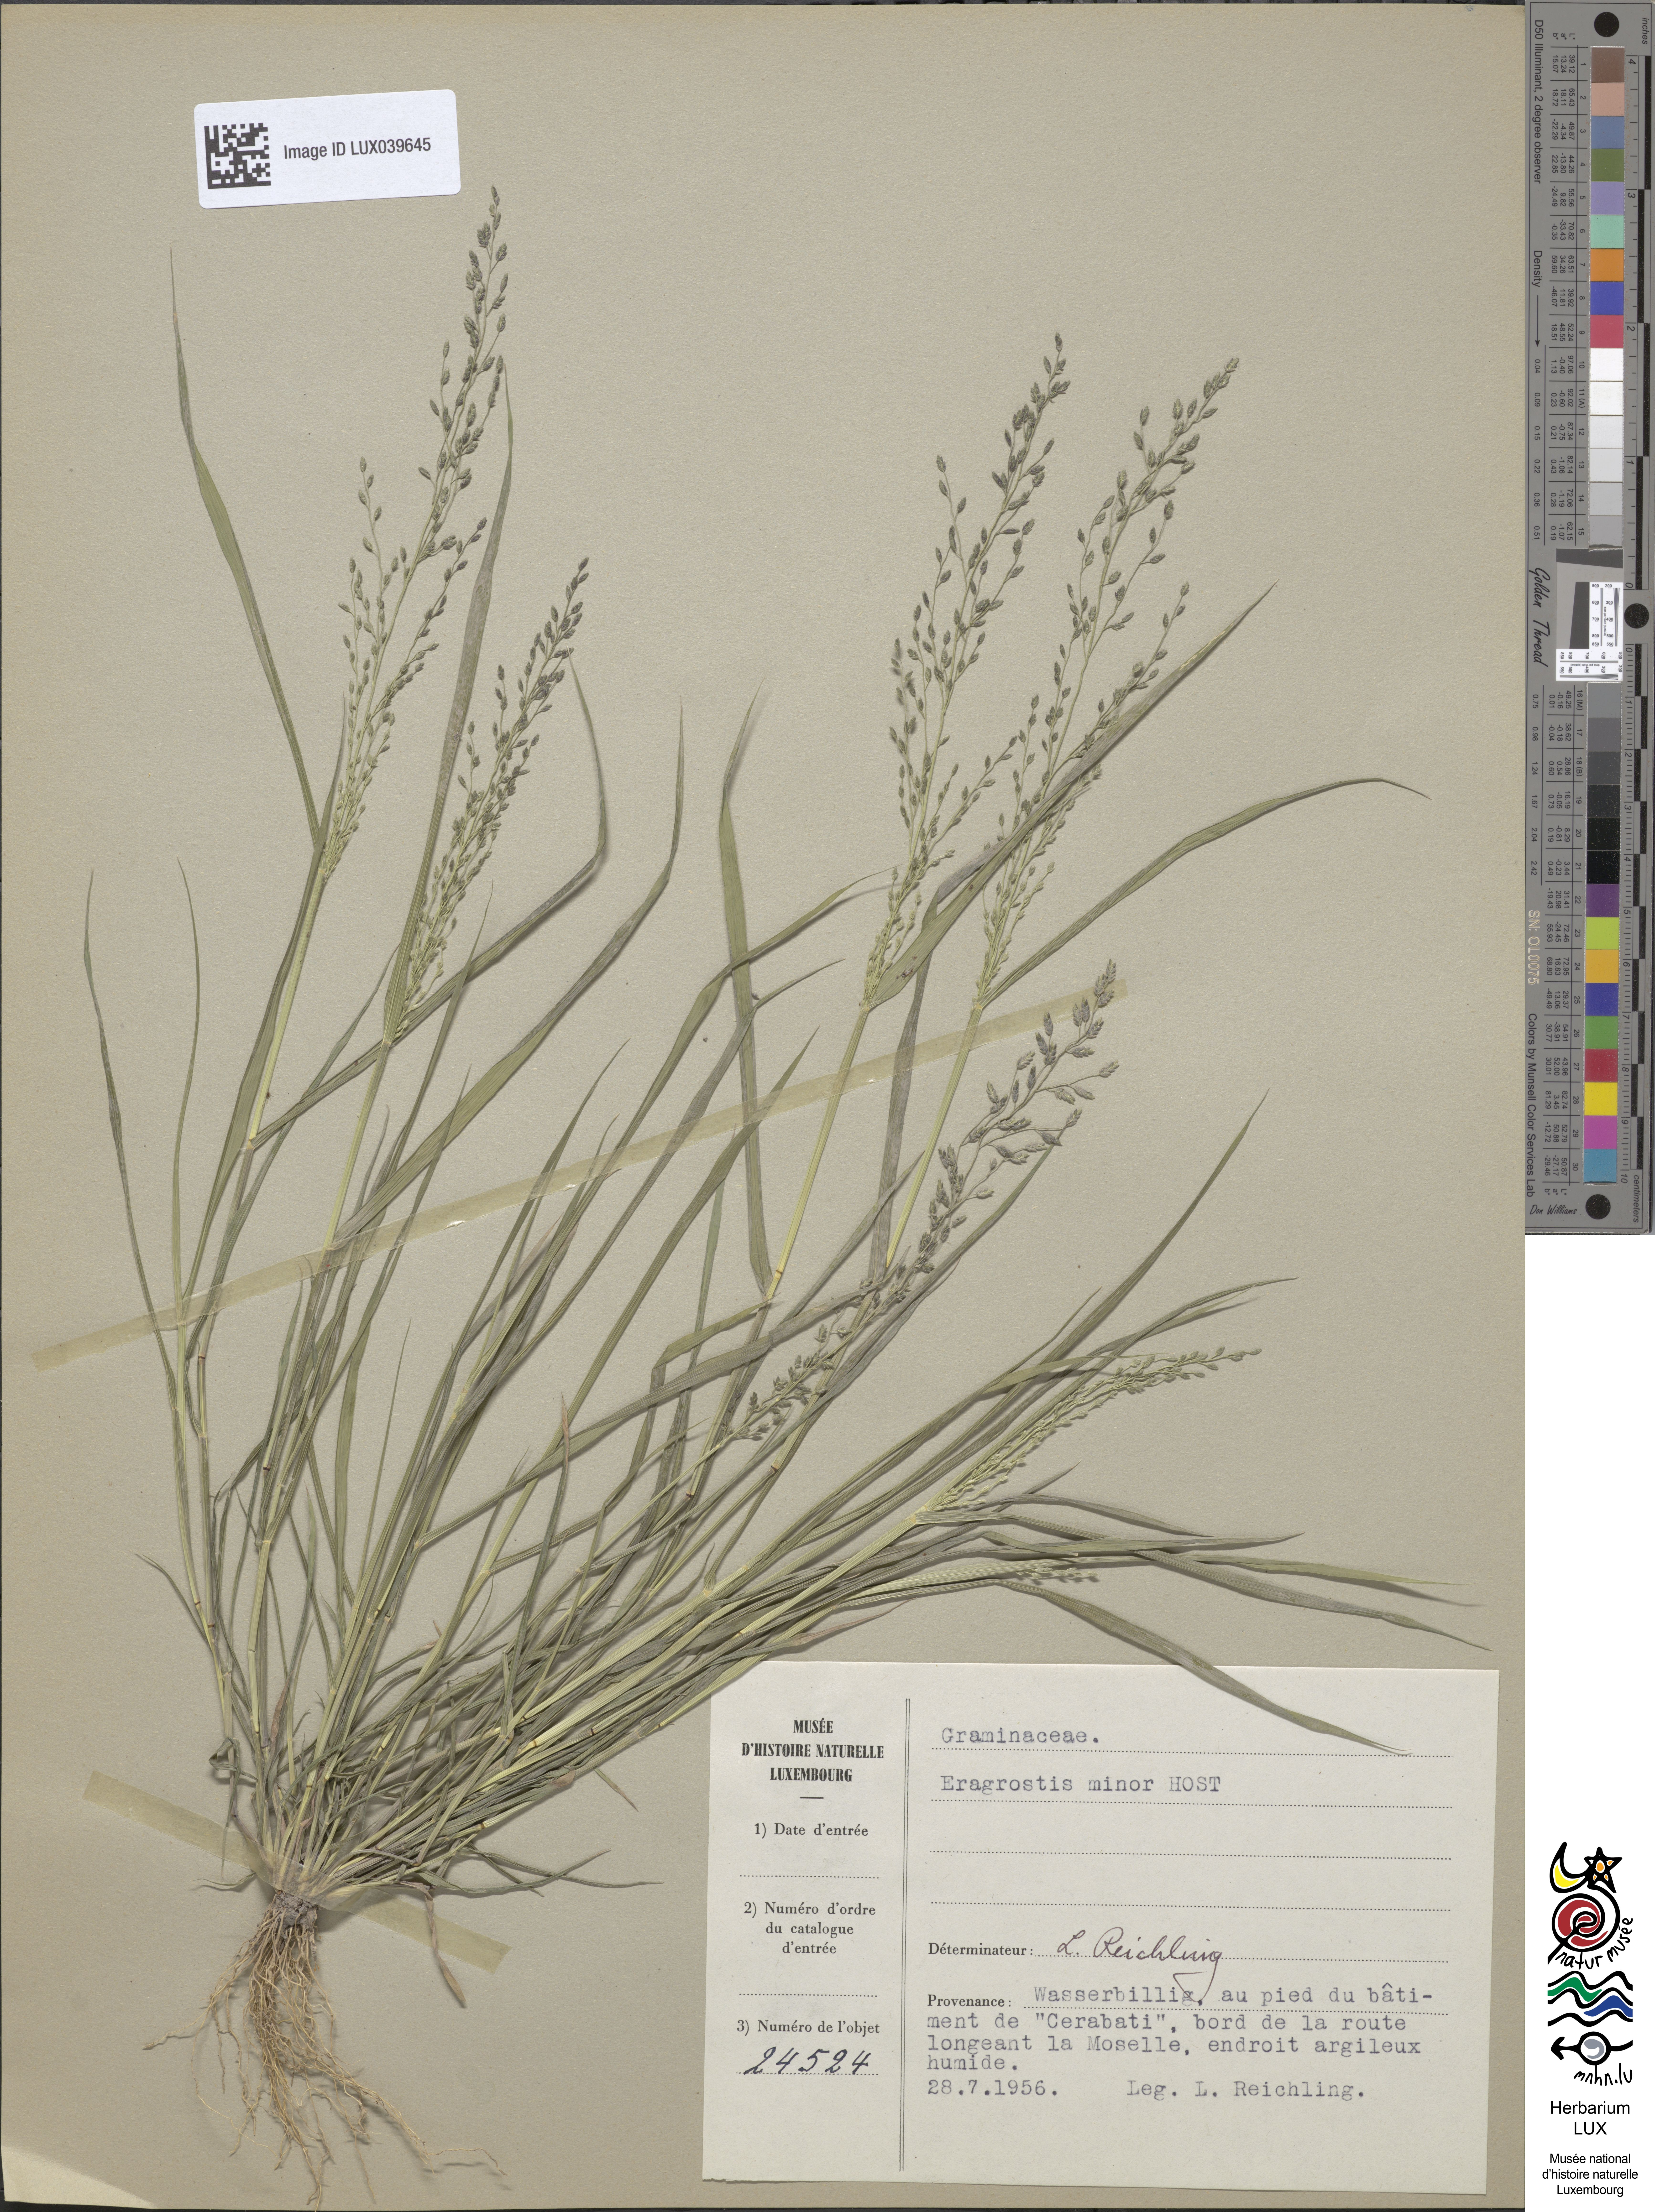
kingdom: Plantae
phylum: Tracheophyta
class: Liliopsida
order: Poales
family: Poaceae
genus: Eragrostis
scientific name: Eragrostis minor
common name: Small love-grass
